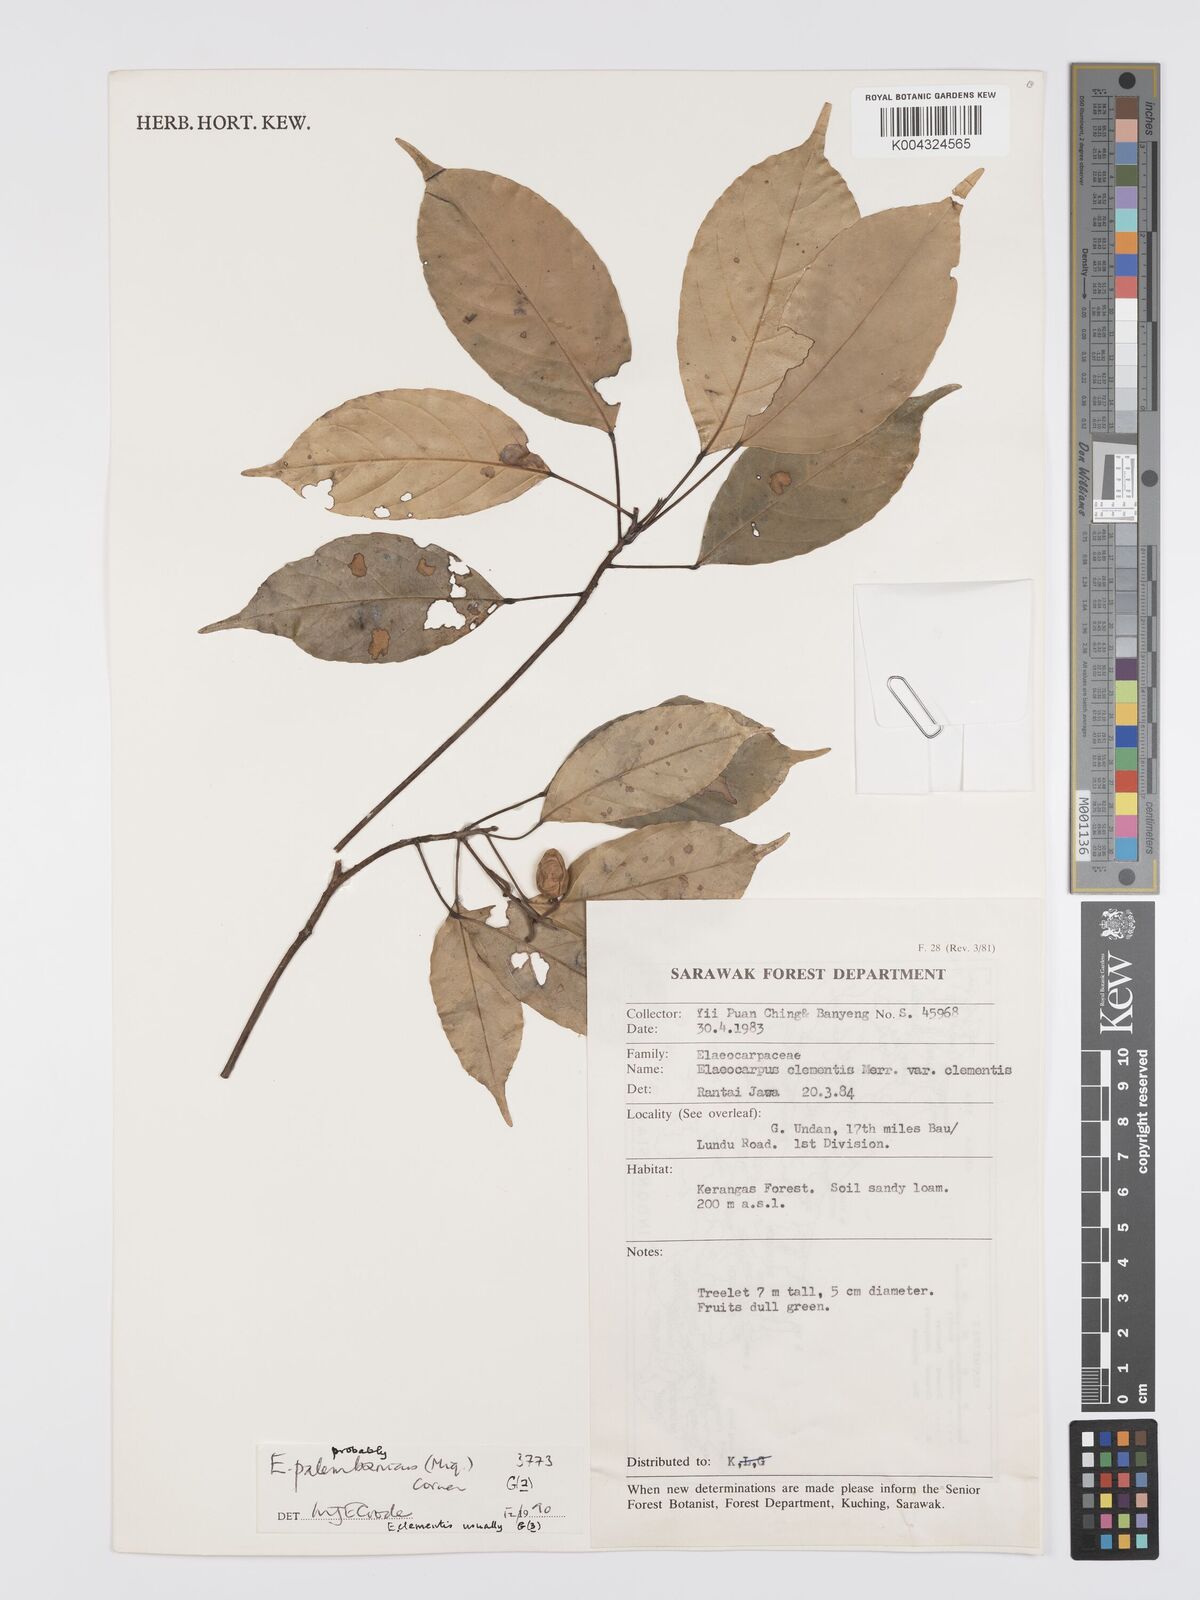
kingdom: Plantae
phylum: Tracheophyta
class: Magnoliopsida
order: Oxalidales
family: Elaeocarpaceae
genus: Elaeocarpus
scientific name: Elaeocarpus palembanicus
